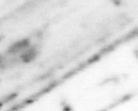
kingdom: Animalia
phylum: Chordata
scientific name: Chordata
